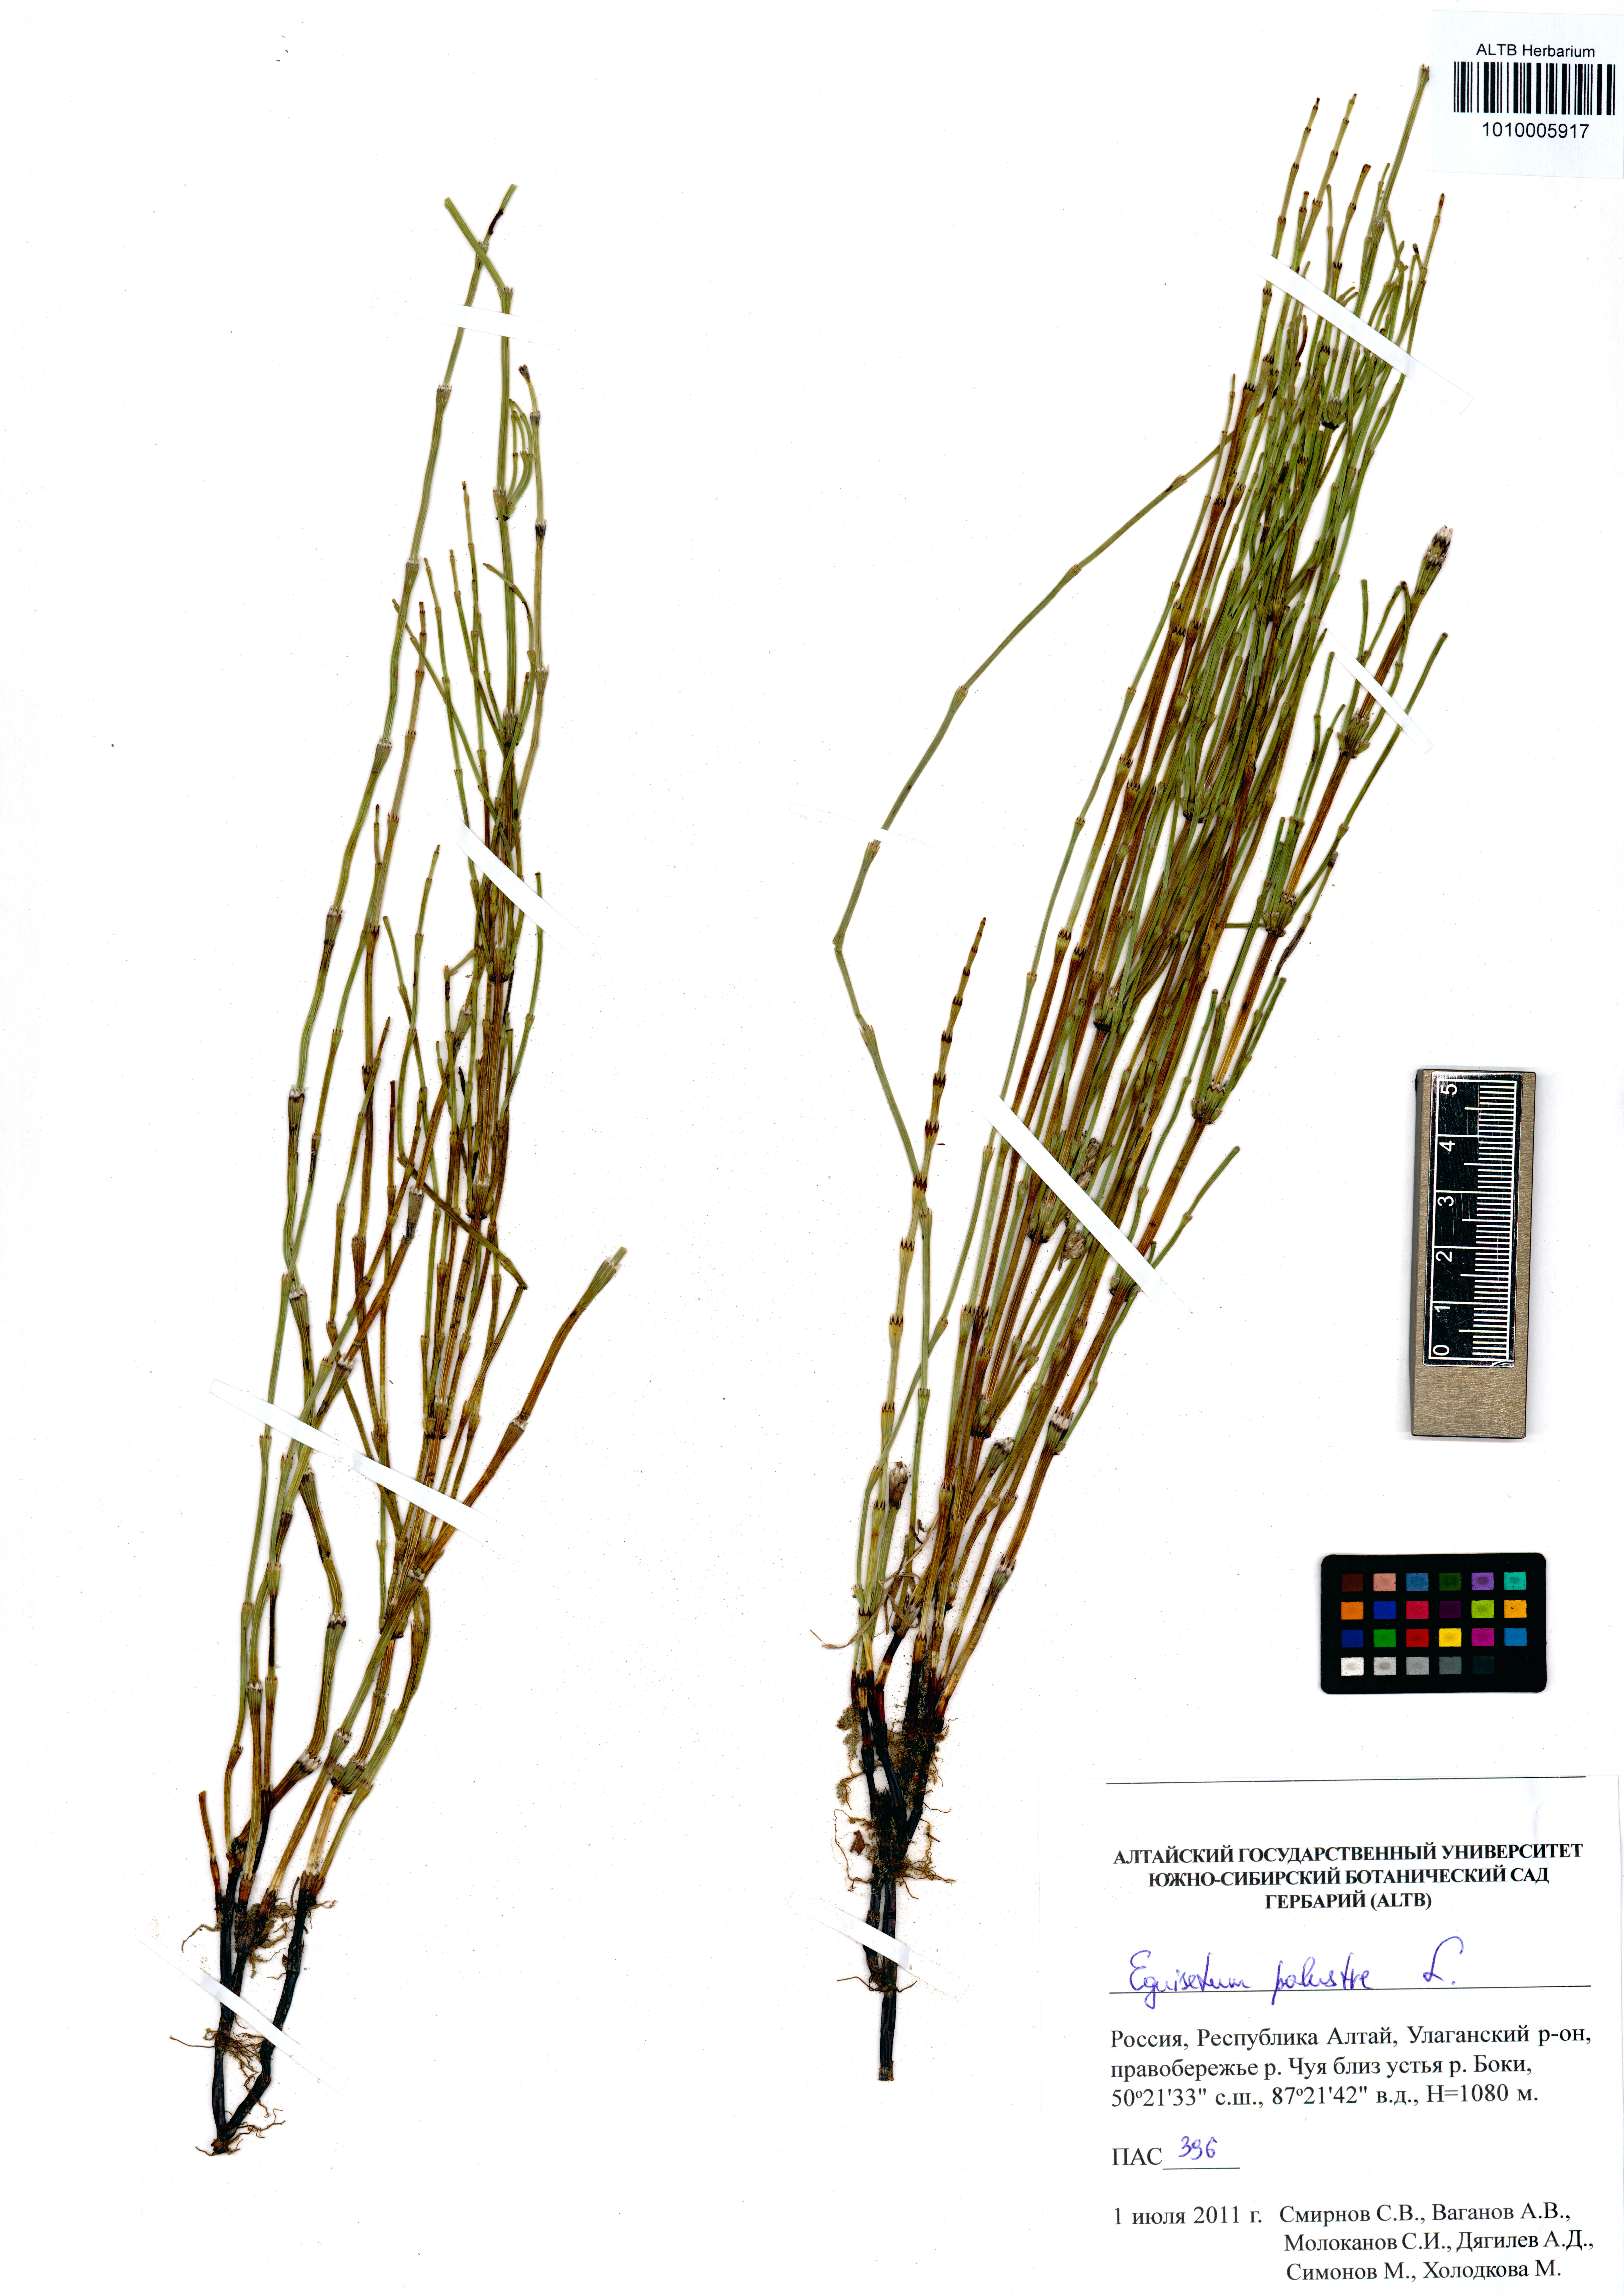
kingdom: Plantae
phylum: Tracheophyta
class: Polypodiopsida
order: Equisetales
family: Equisetaceae
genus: Equisetum
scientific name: Equisetum palustre
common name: Marsh horsetail
